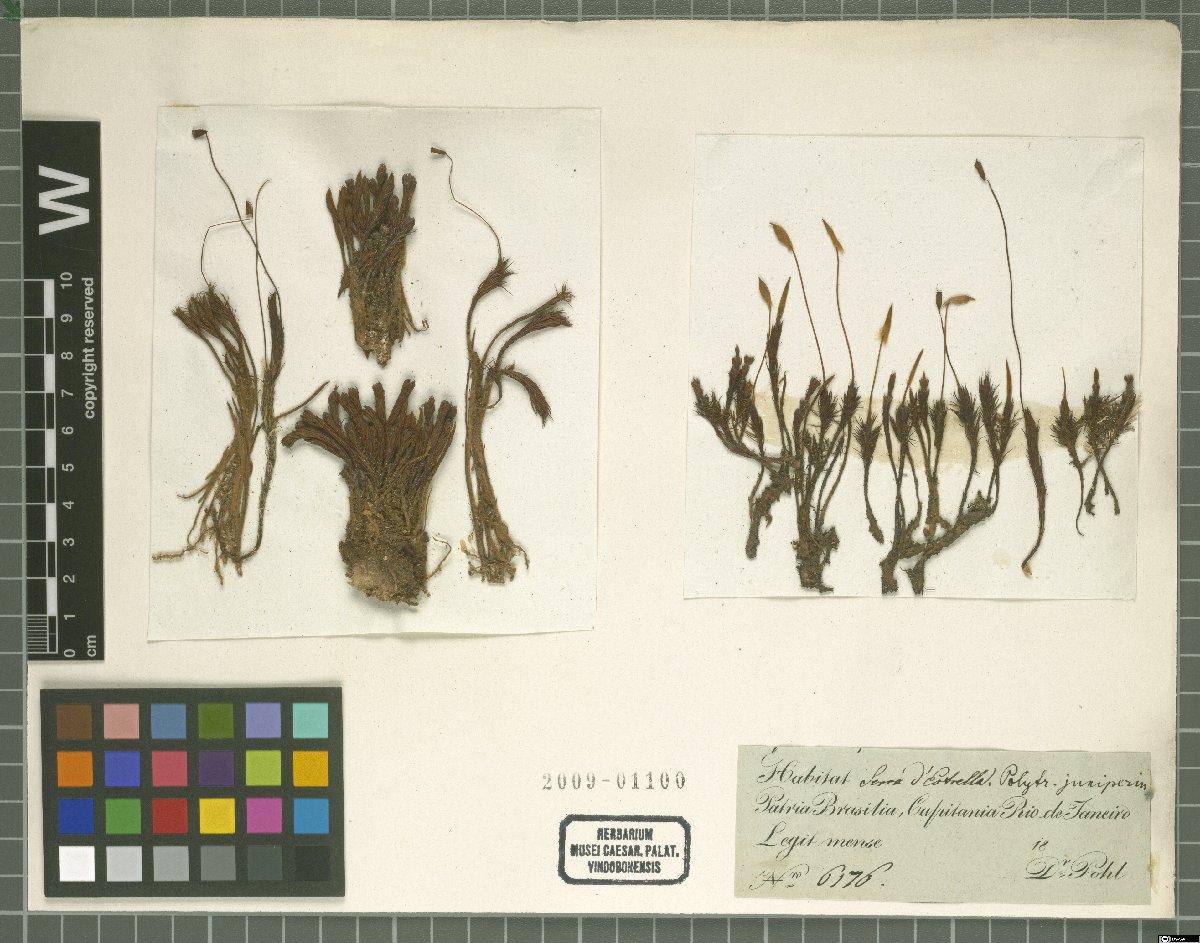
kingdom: Plantae
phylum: Bryophyta
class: Polytrichopsida
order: Polytrichales
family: Polytrichaceae
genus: Polytrichum
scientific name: Polytrichum juniperinum
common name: Juniper haircap moss
